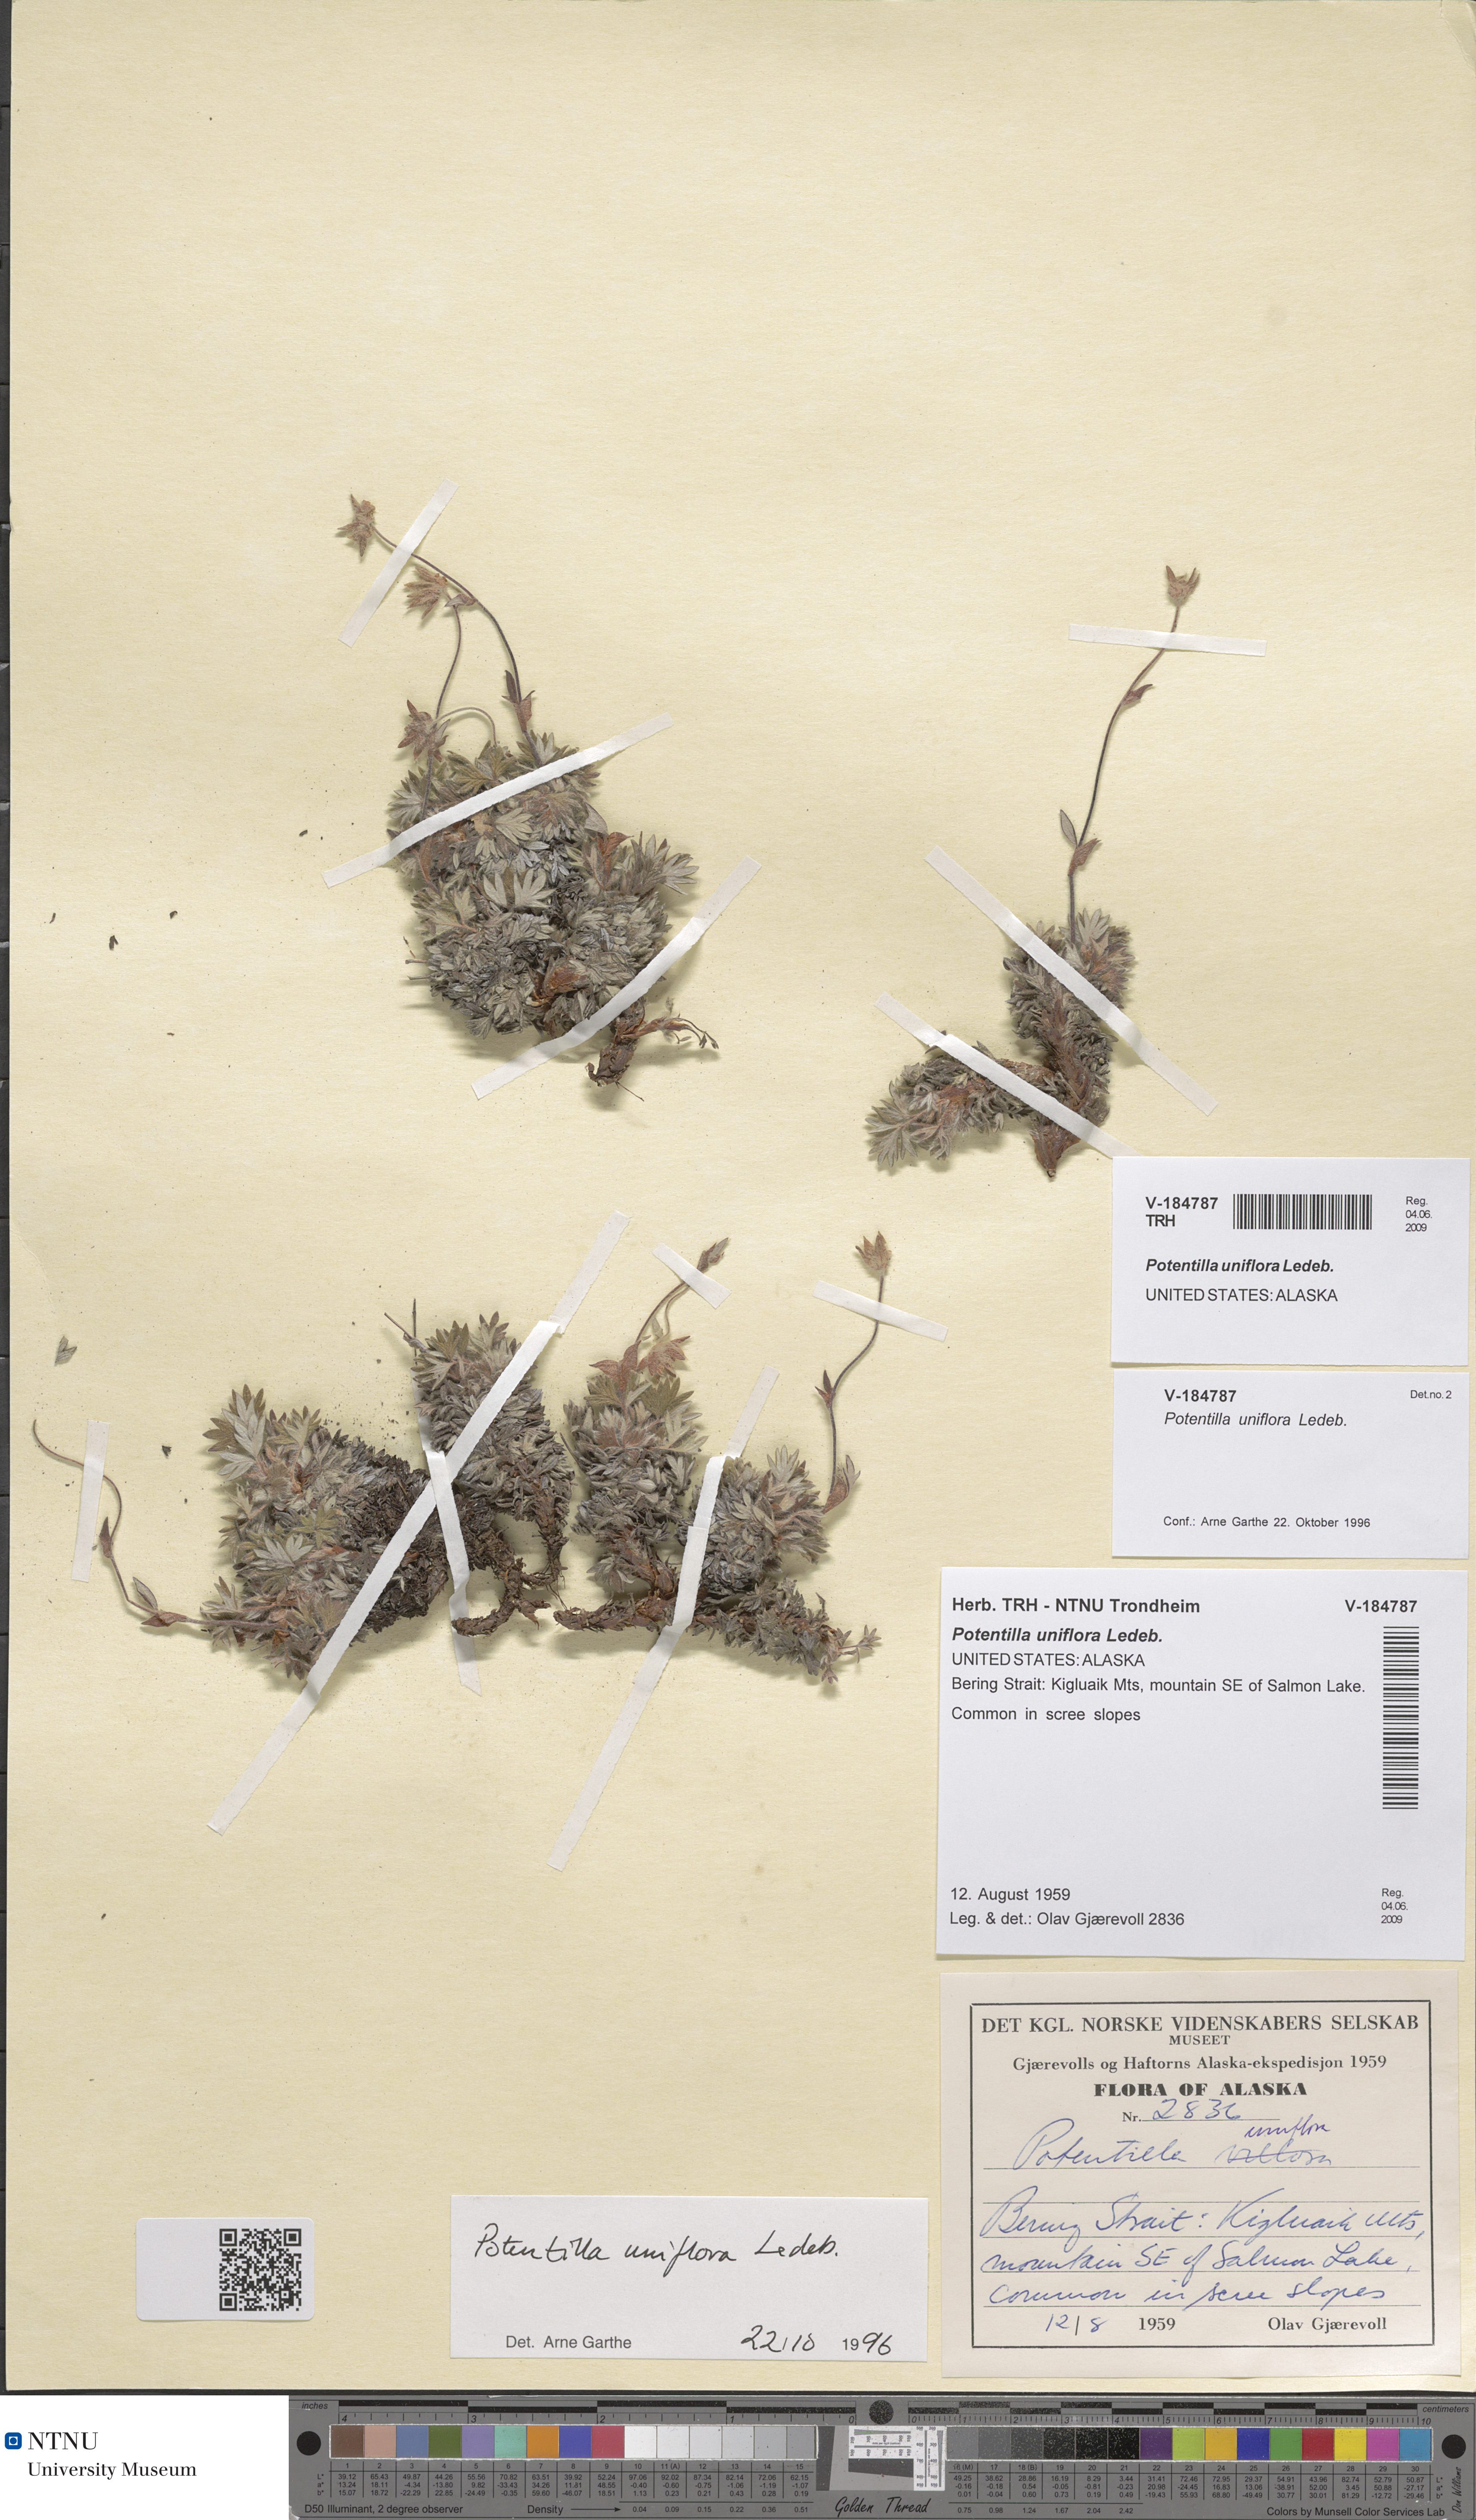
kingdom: Plantae
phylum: Tracheophyta
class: Magnoliopsida
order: Rosales
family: Rosaceae
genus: Potentilla
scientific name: Potentilla uniflora
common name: One-flowered cinquefoil
